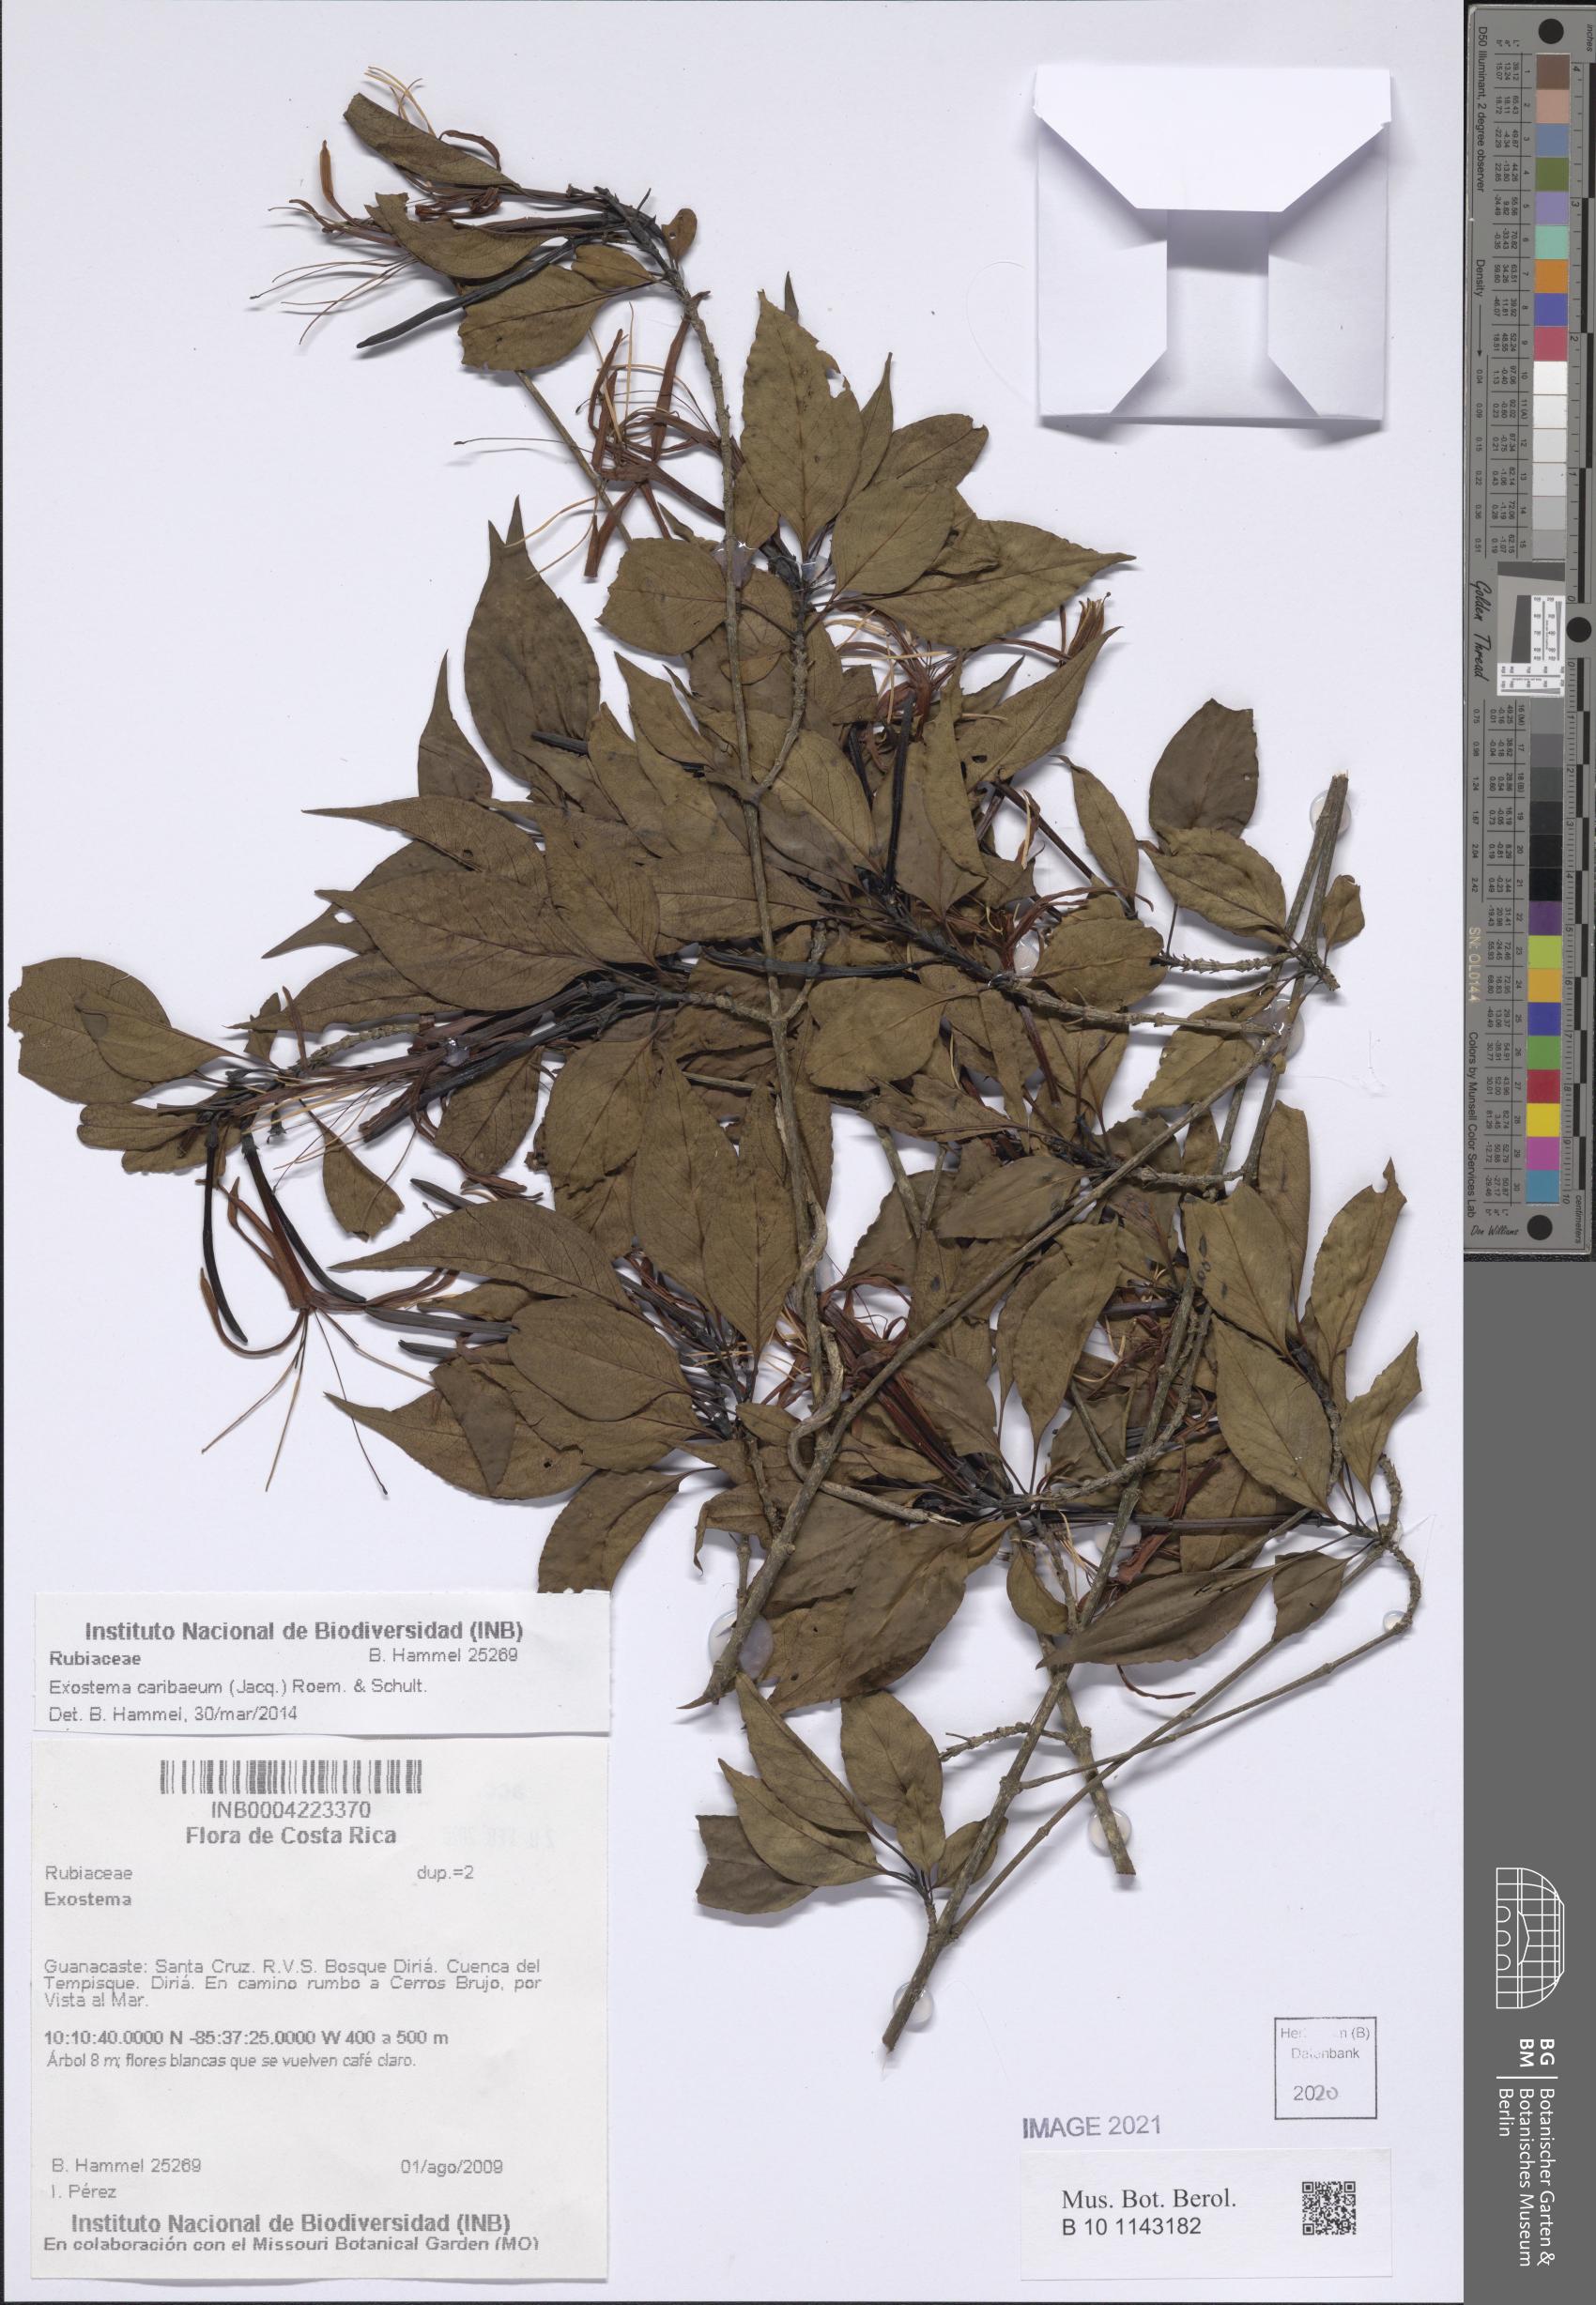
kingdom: Plantae
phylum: Tracheophyta
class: Magnoliopsida
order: Gentianales
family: Rubiaceae
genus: Exostema
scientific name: Exostema caribaeum
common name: Princewood
